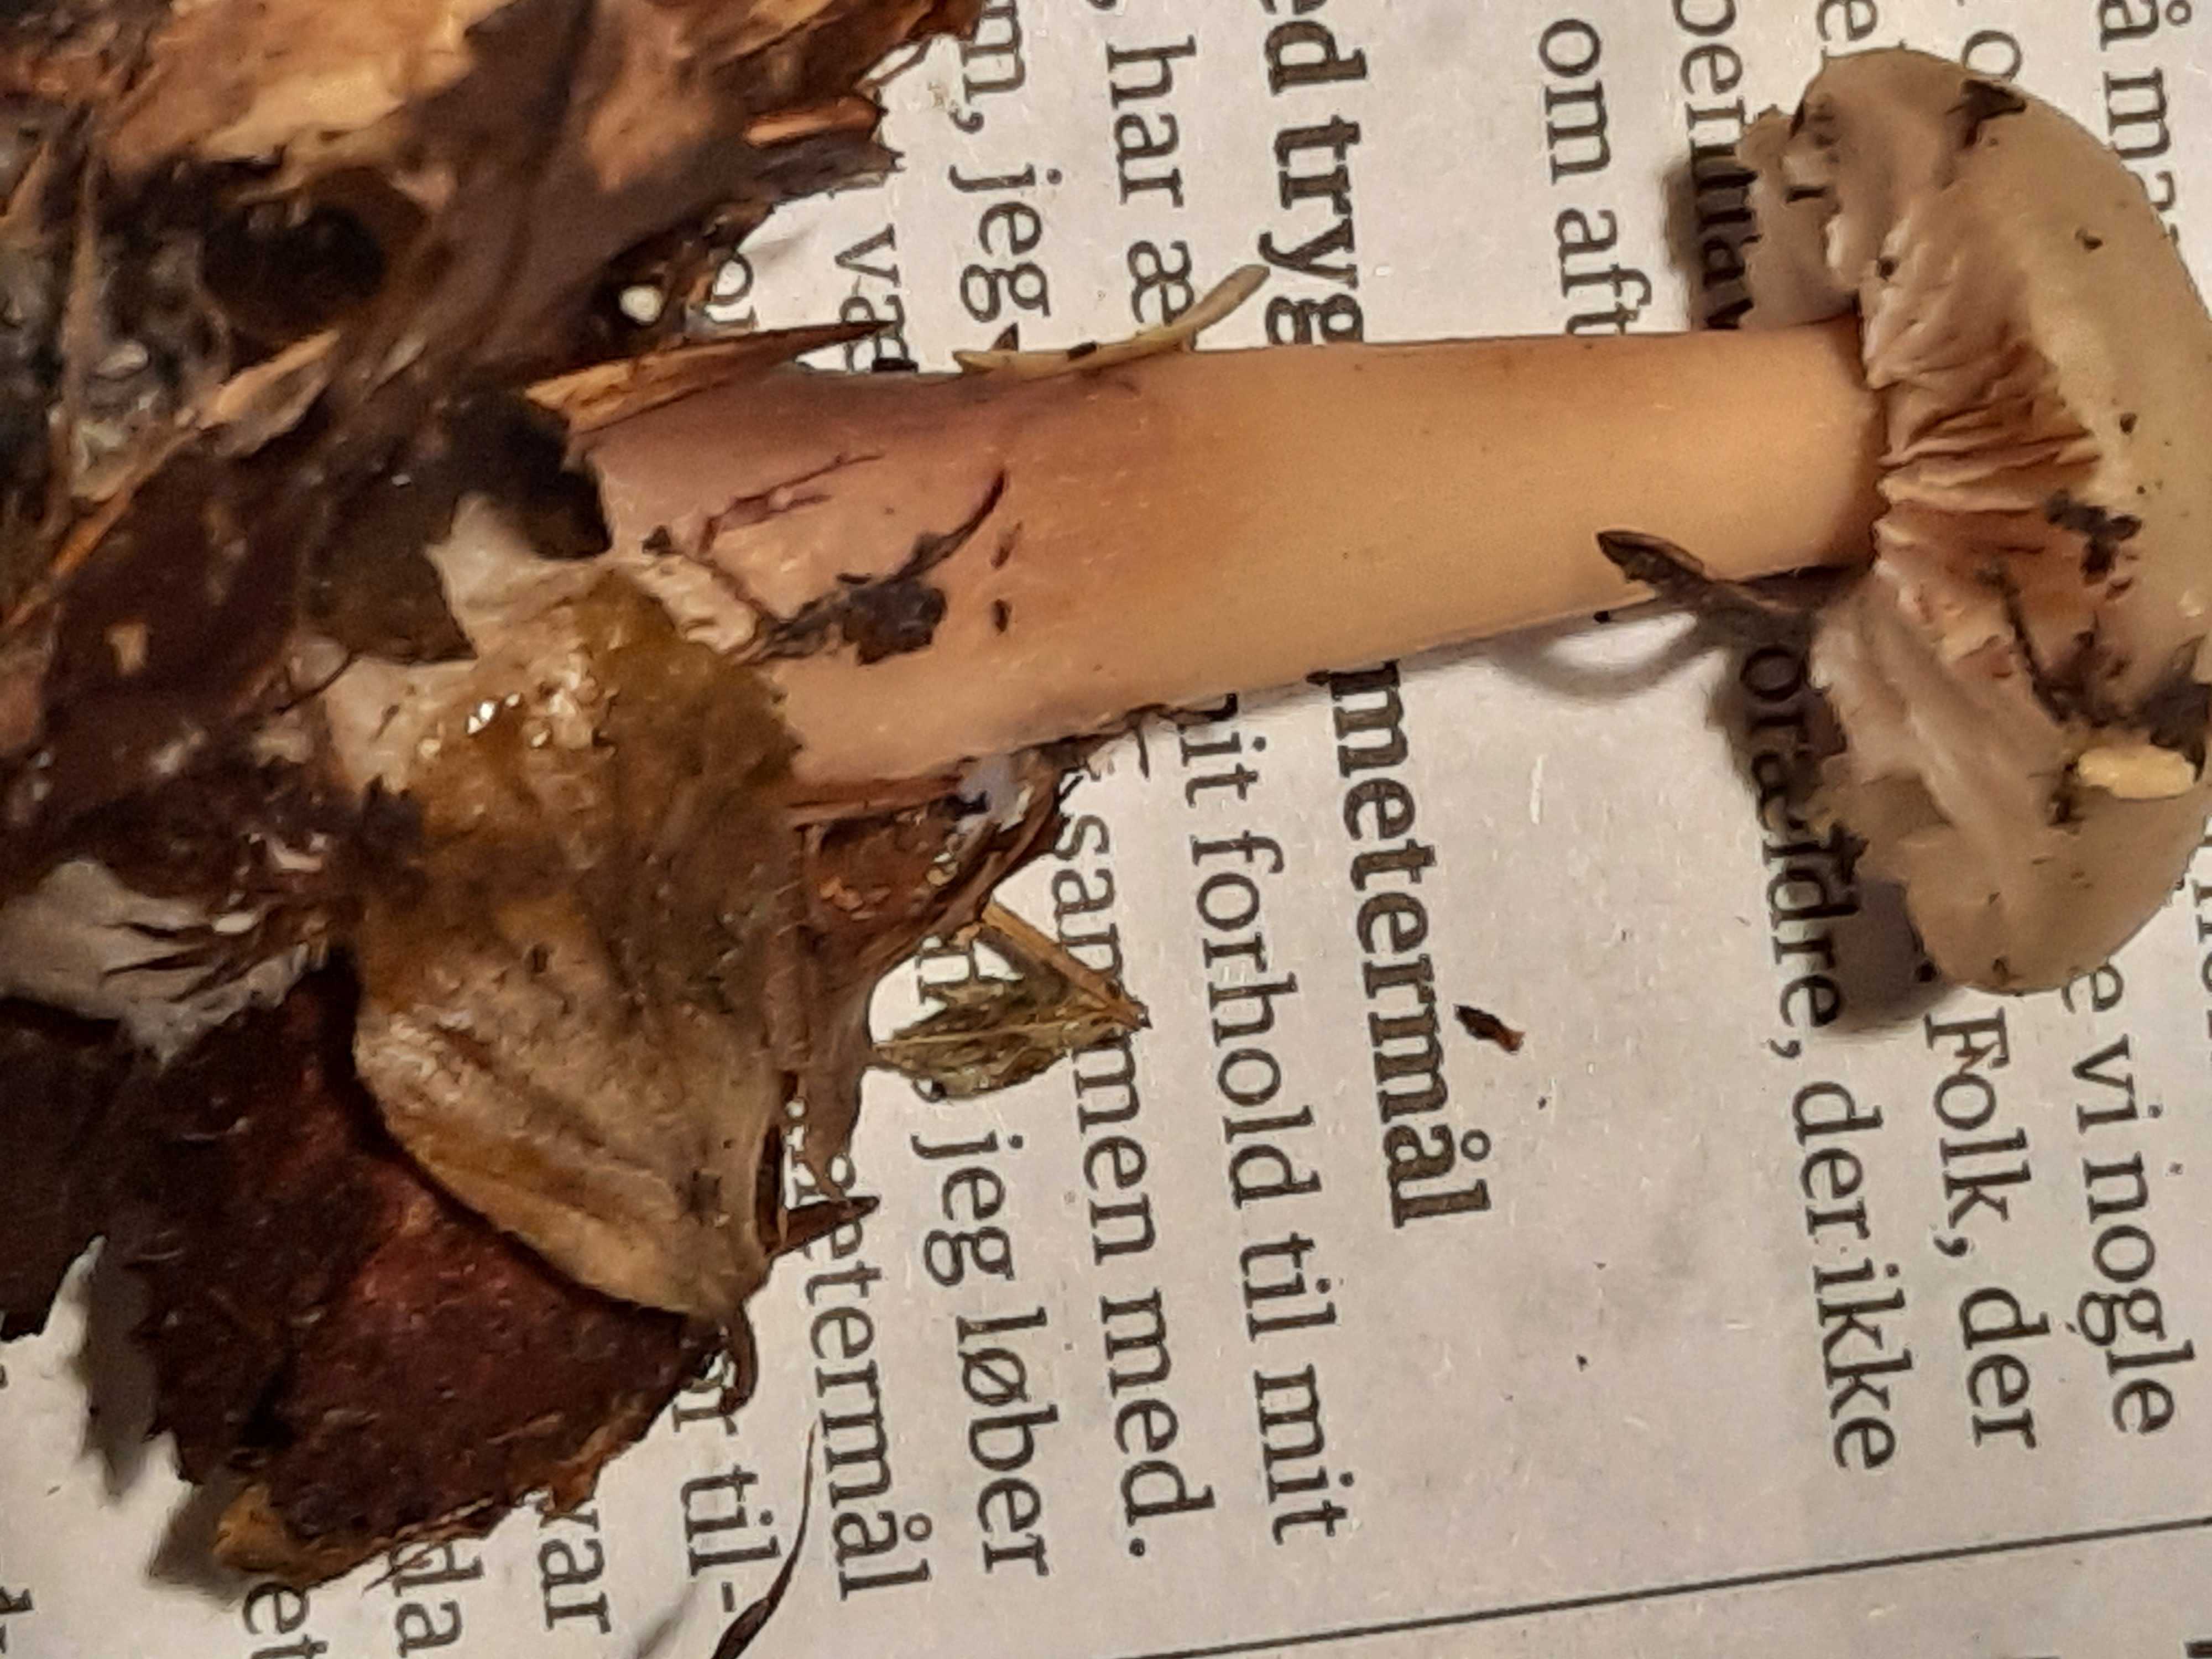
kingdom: Fungi
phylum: Basidiomycota
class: Agaricomycetes
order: Agaricales
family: Omphalotaceae
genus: Rhodocollybia
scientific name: Rhodocollybia asema
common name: horngrå fladhat
